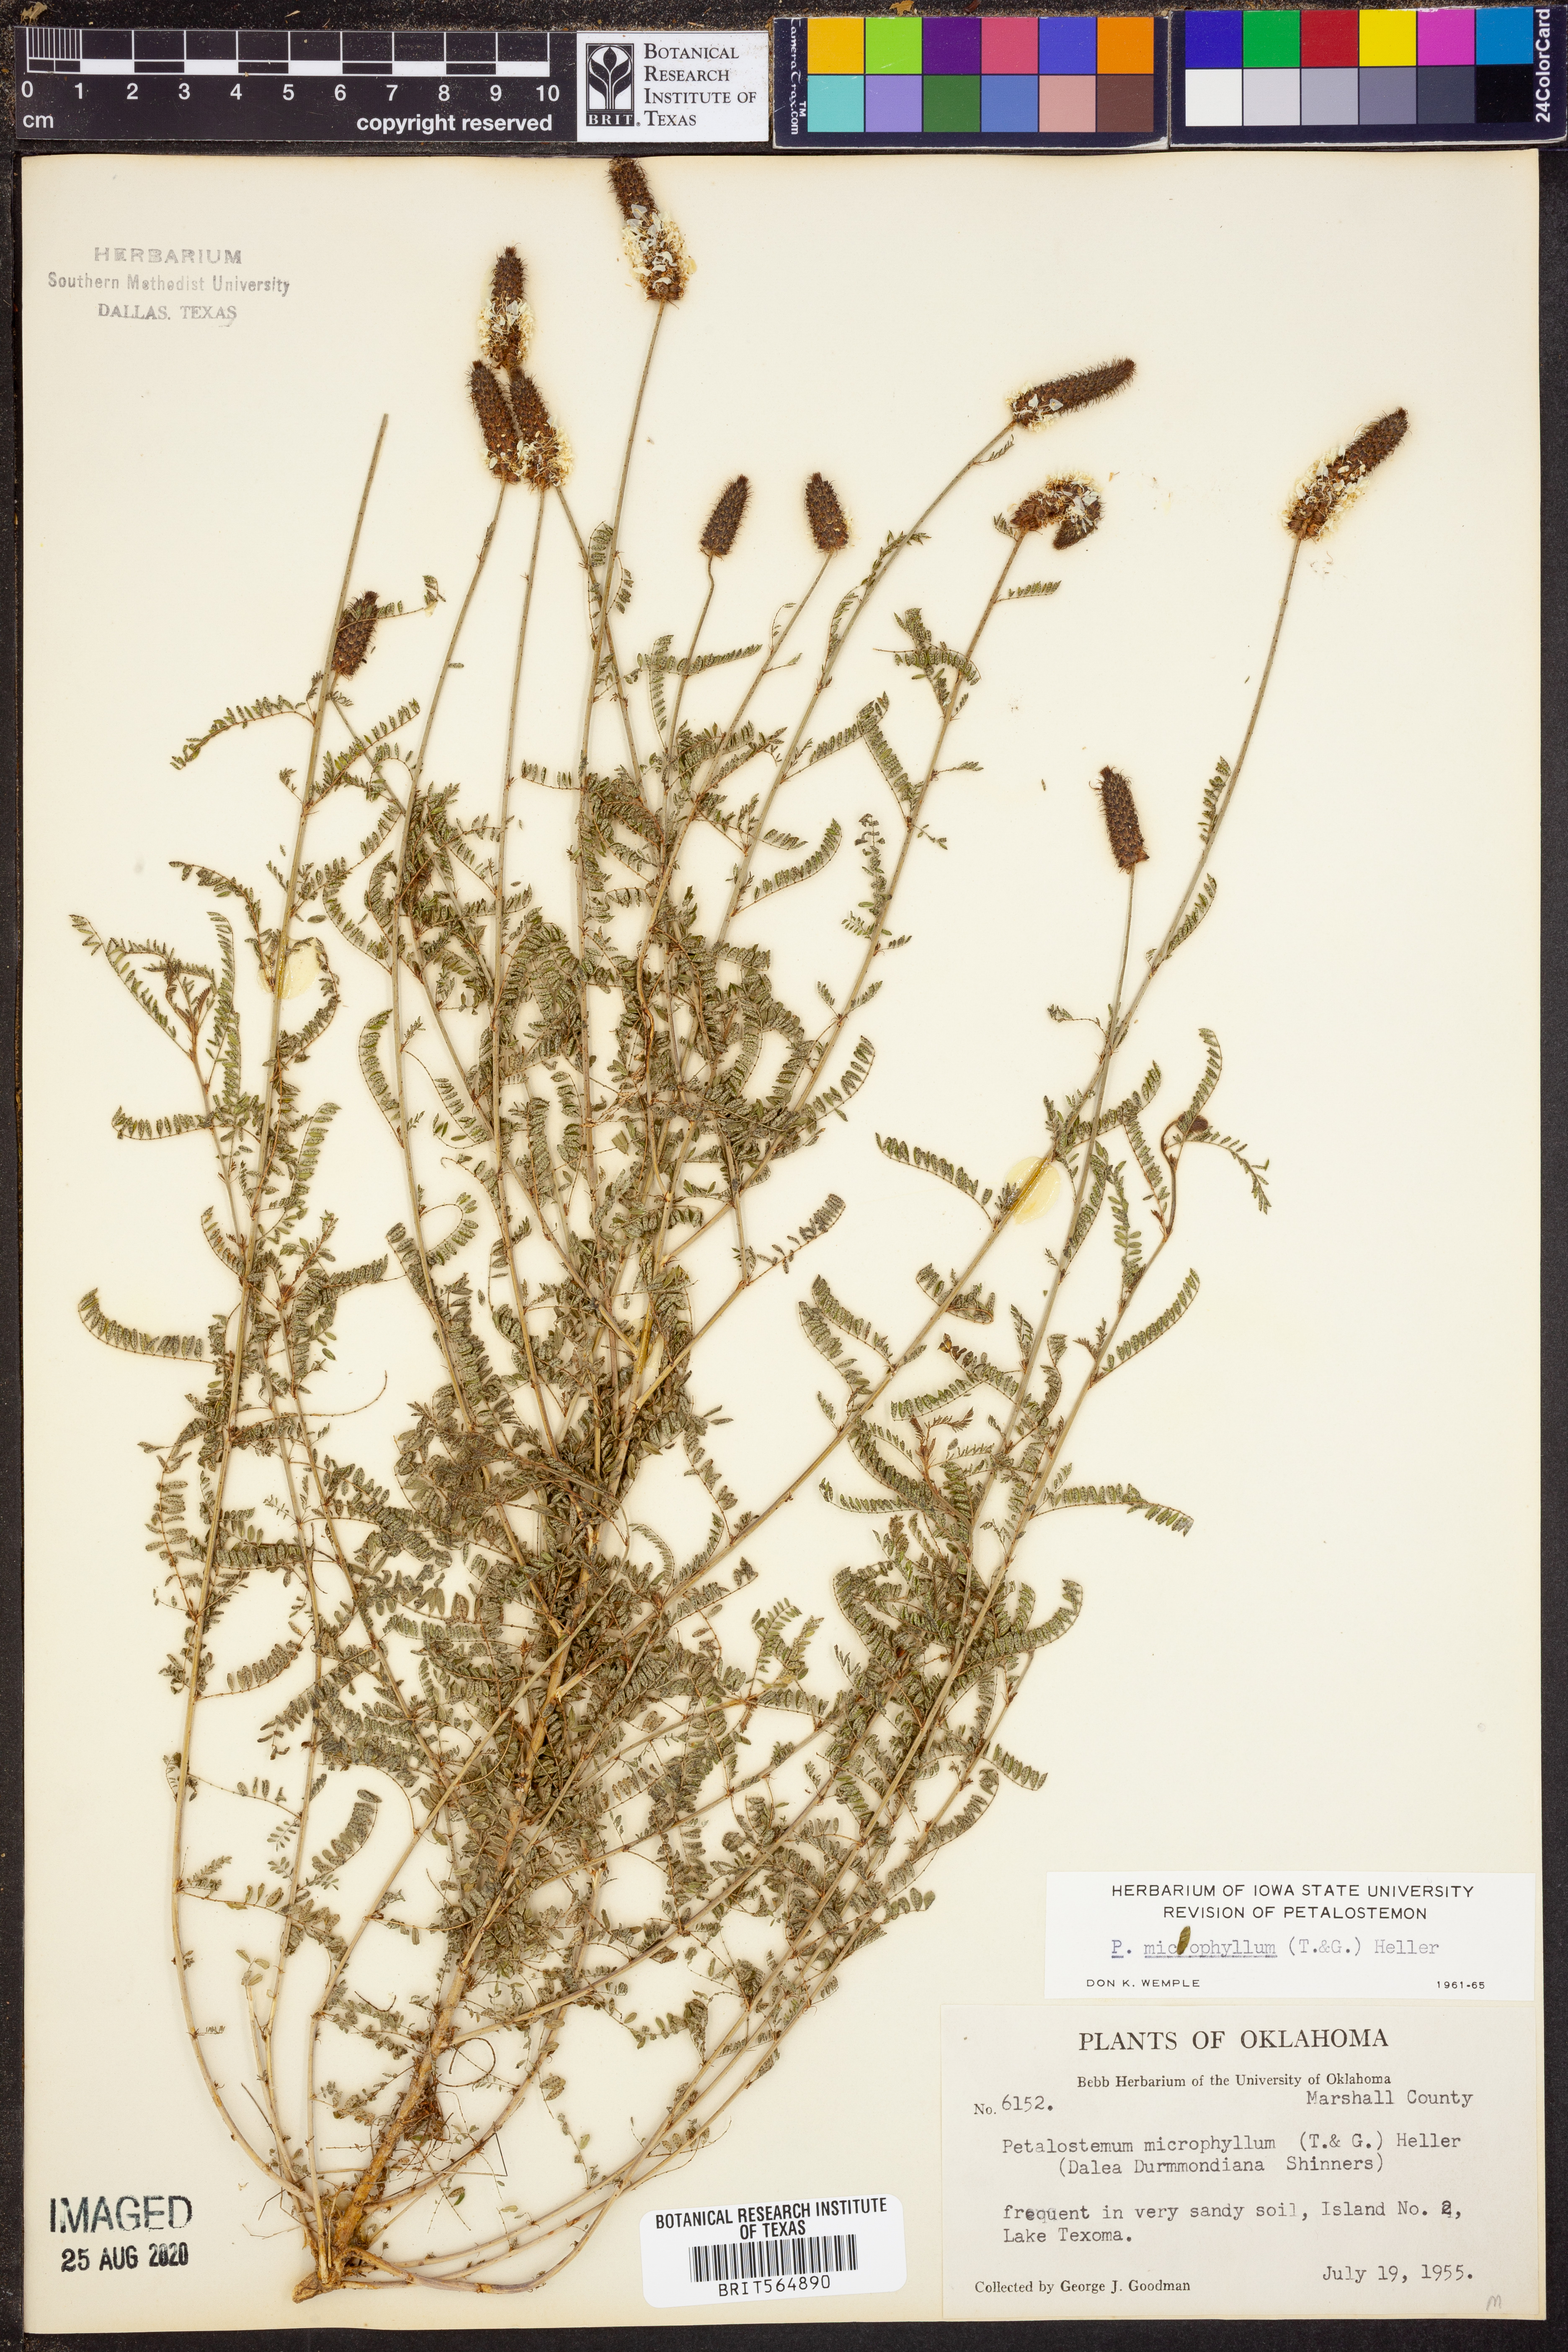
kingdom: Plantae
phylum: Tracheophyta
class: Magnoliopsida
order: Fabales
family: Fabaceae
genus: Dalea
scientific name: Dalea drummondiana
